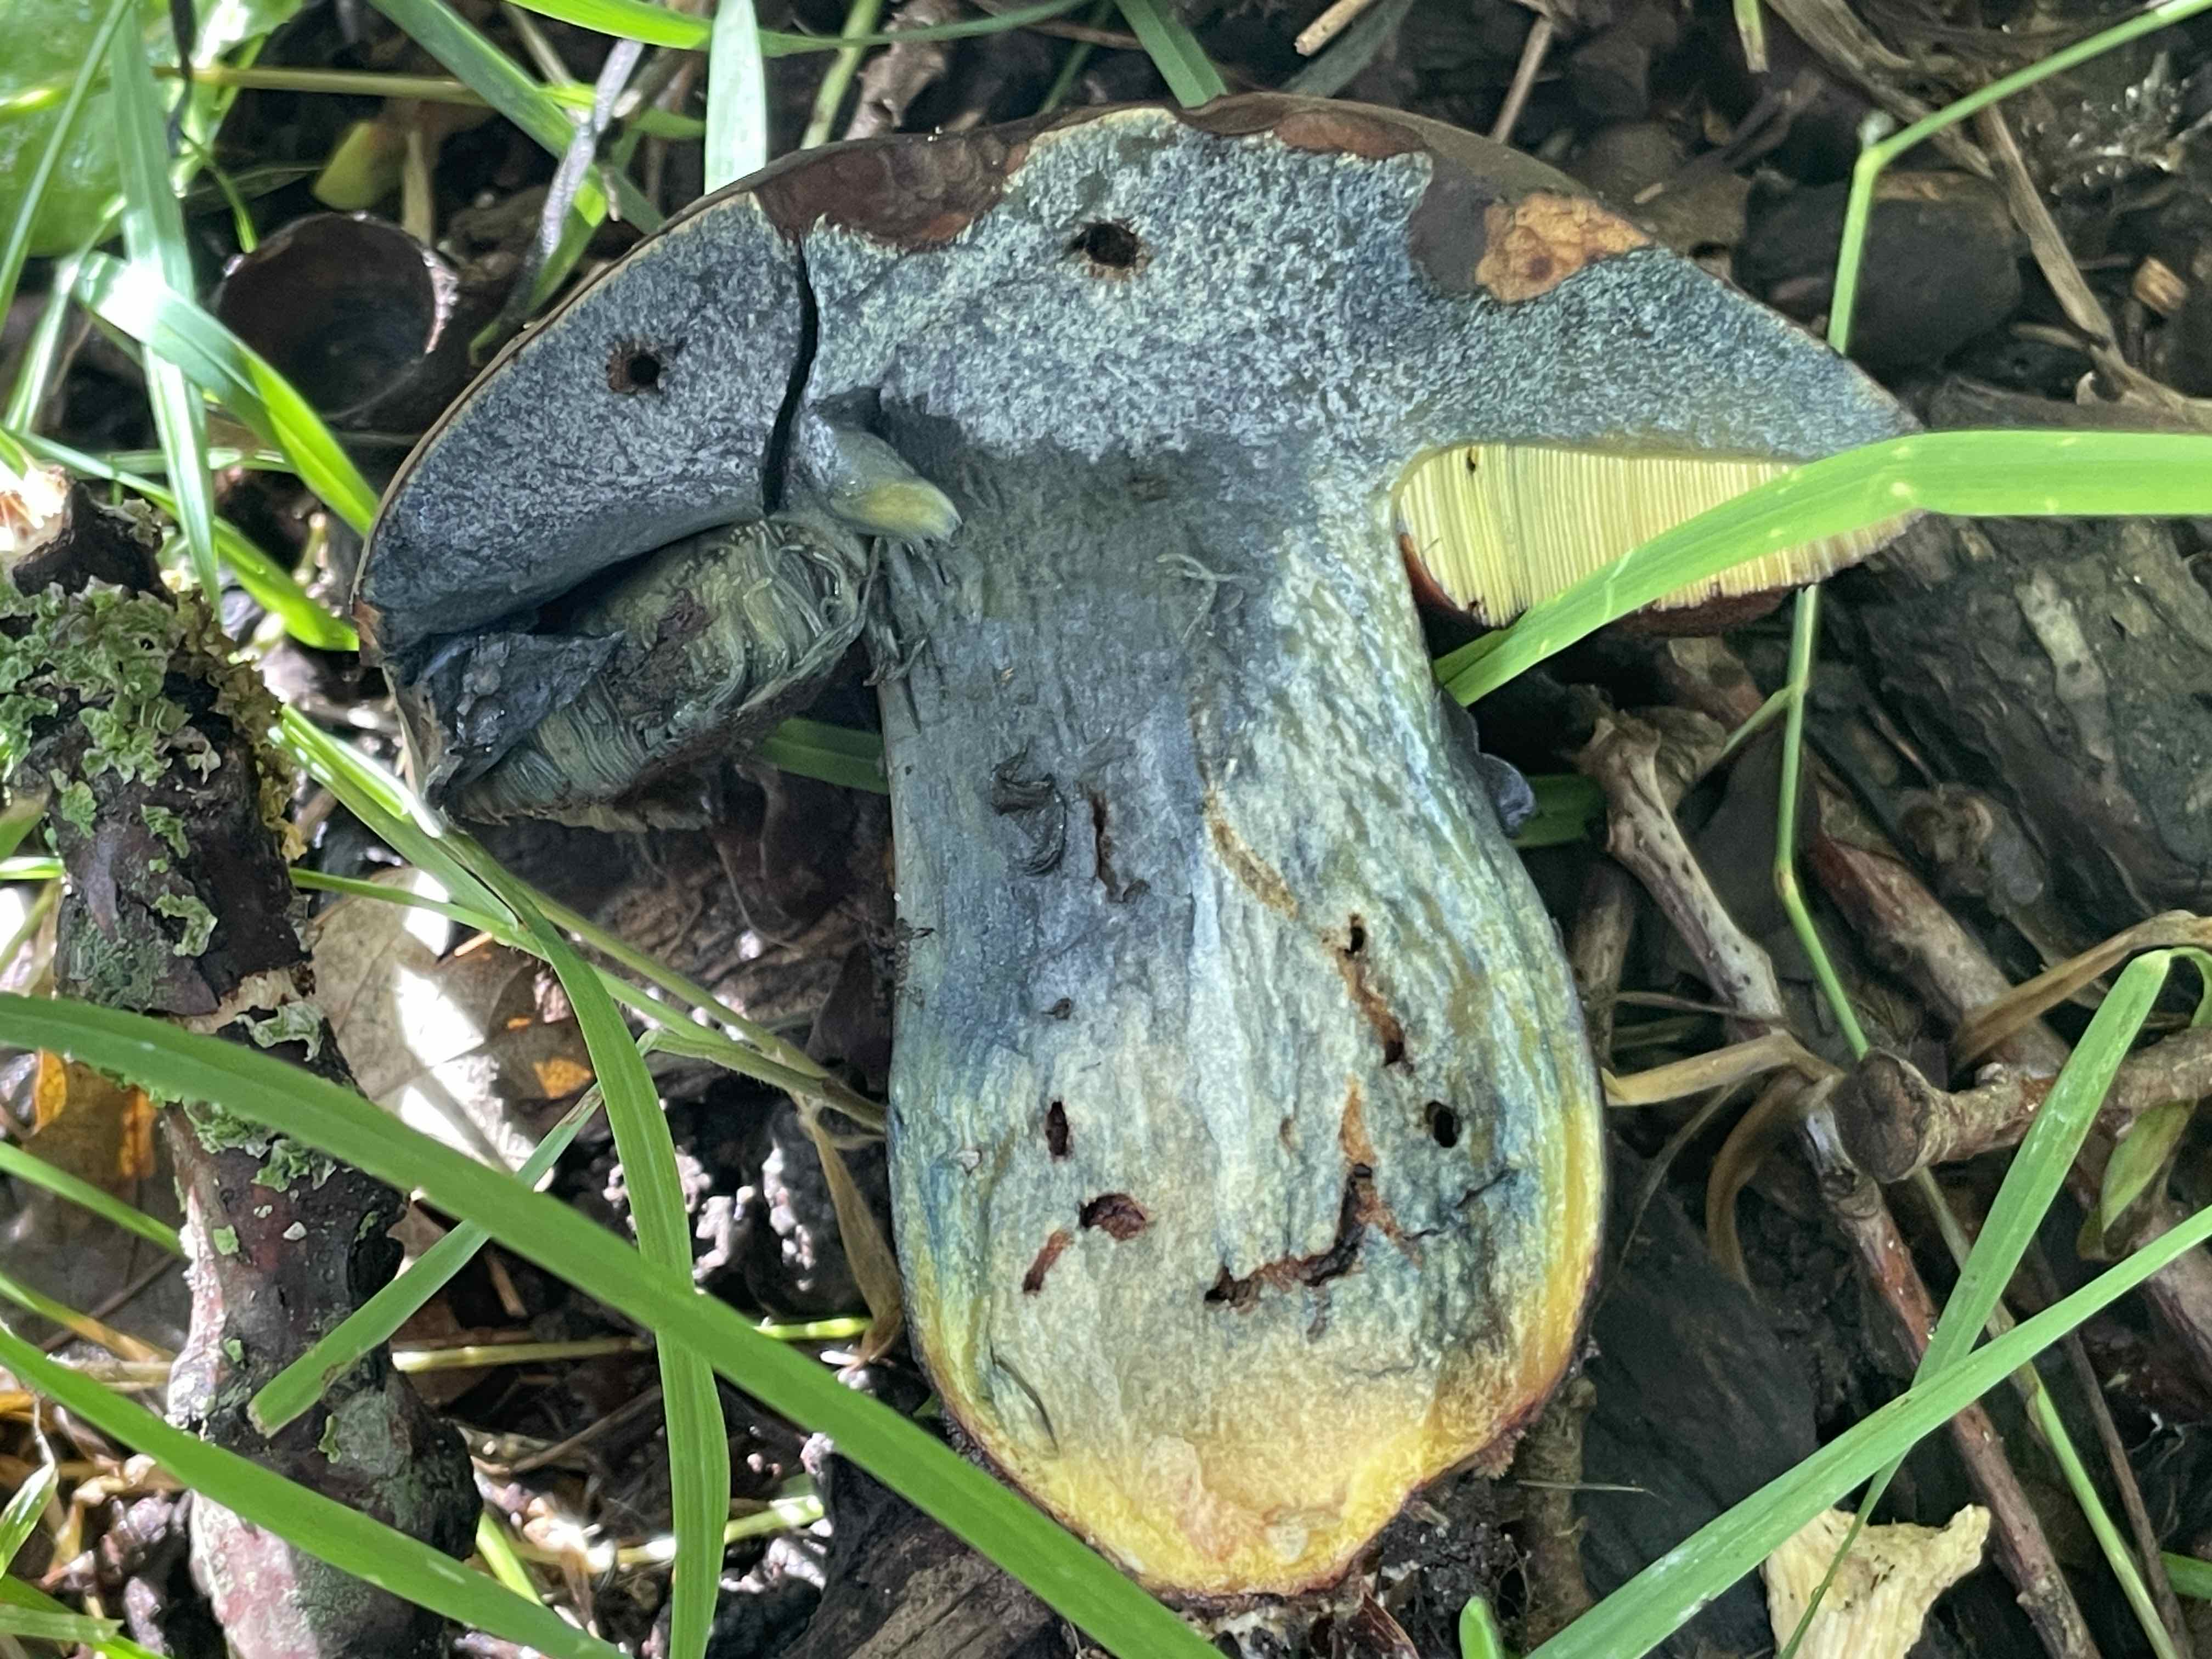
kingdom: Fungi
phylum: Basidiomycota
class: Agaricomycetes
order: Boletales
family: Boletaceae
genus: Neoboletus
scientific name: Neoboletus xanthopus
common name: finprikket indigorørhat
